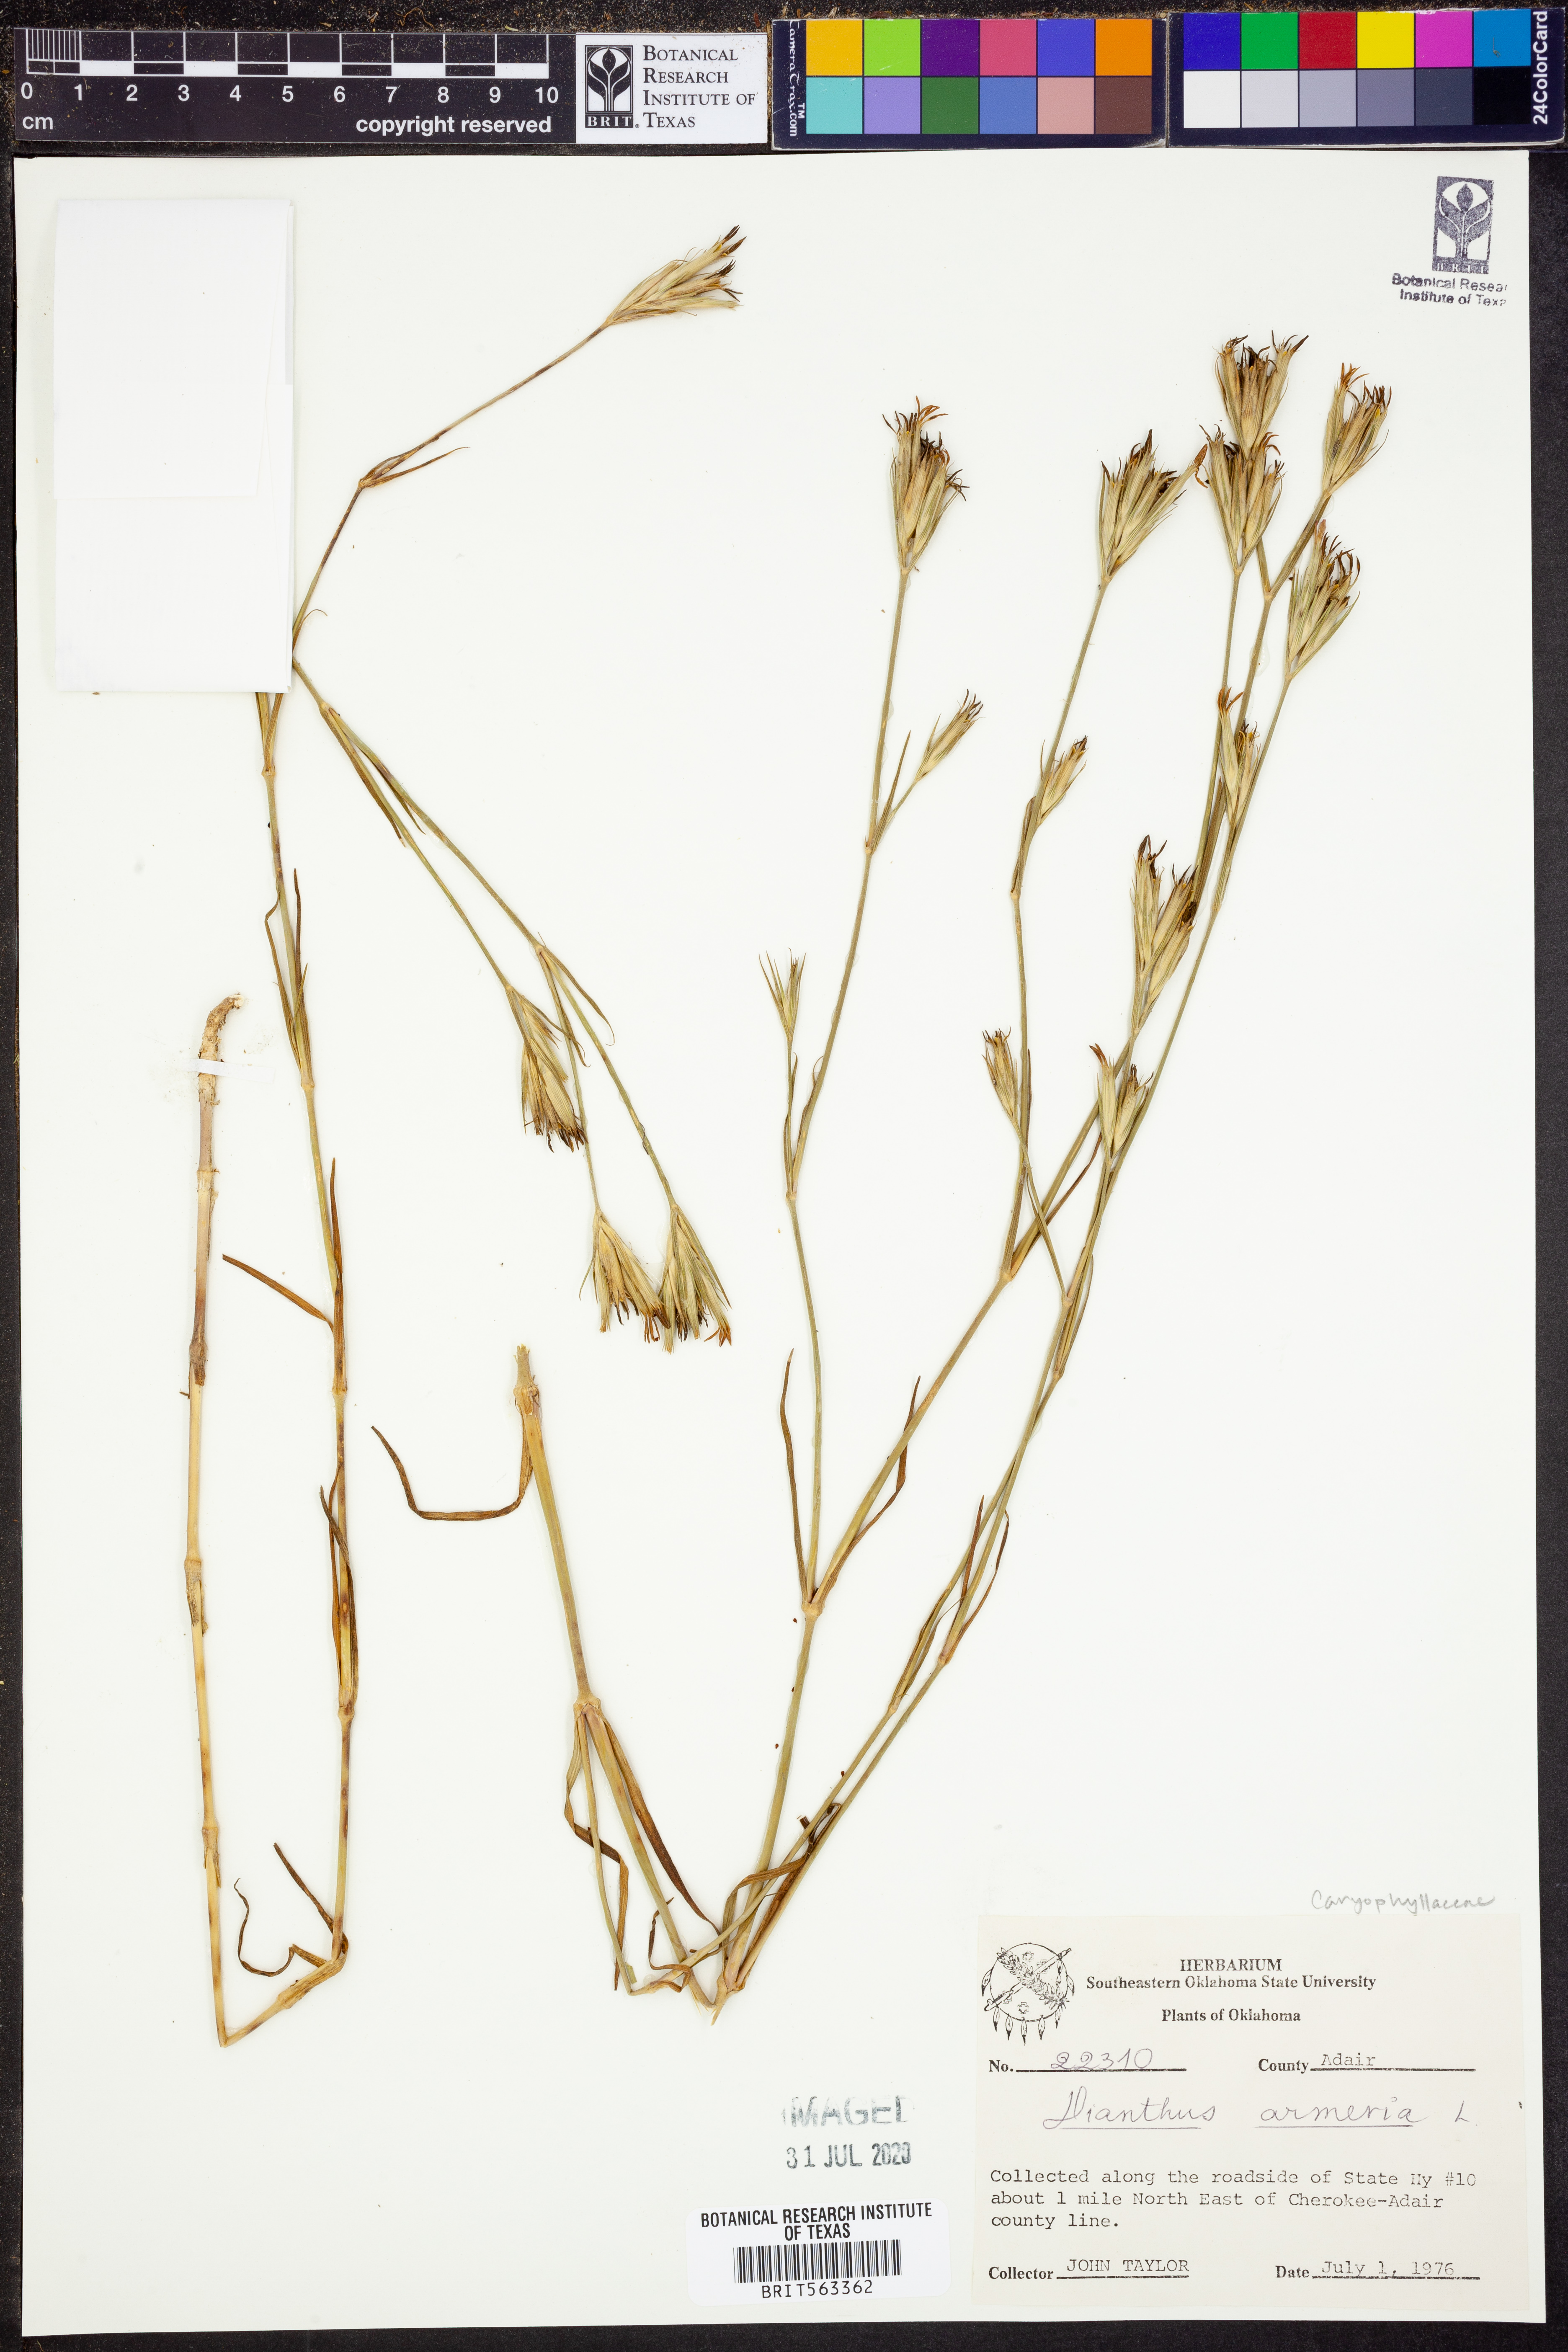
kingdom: Plantae
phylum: Tracheophyta
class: Magnoliopsida
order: Caryophyllales
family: Caryophyllaceae
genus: Dianthus
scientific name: Dianthus armeria
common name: Deptford pink
